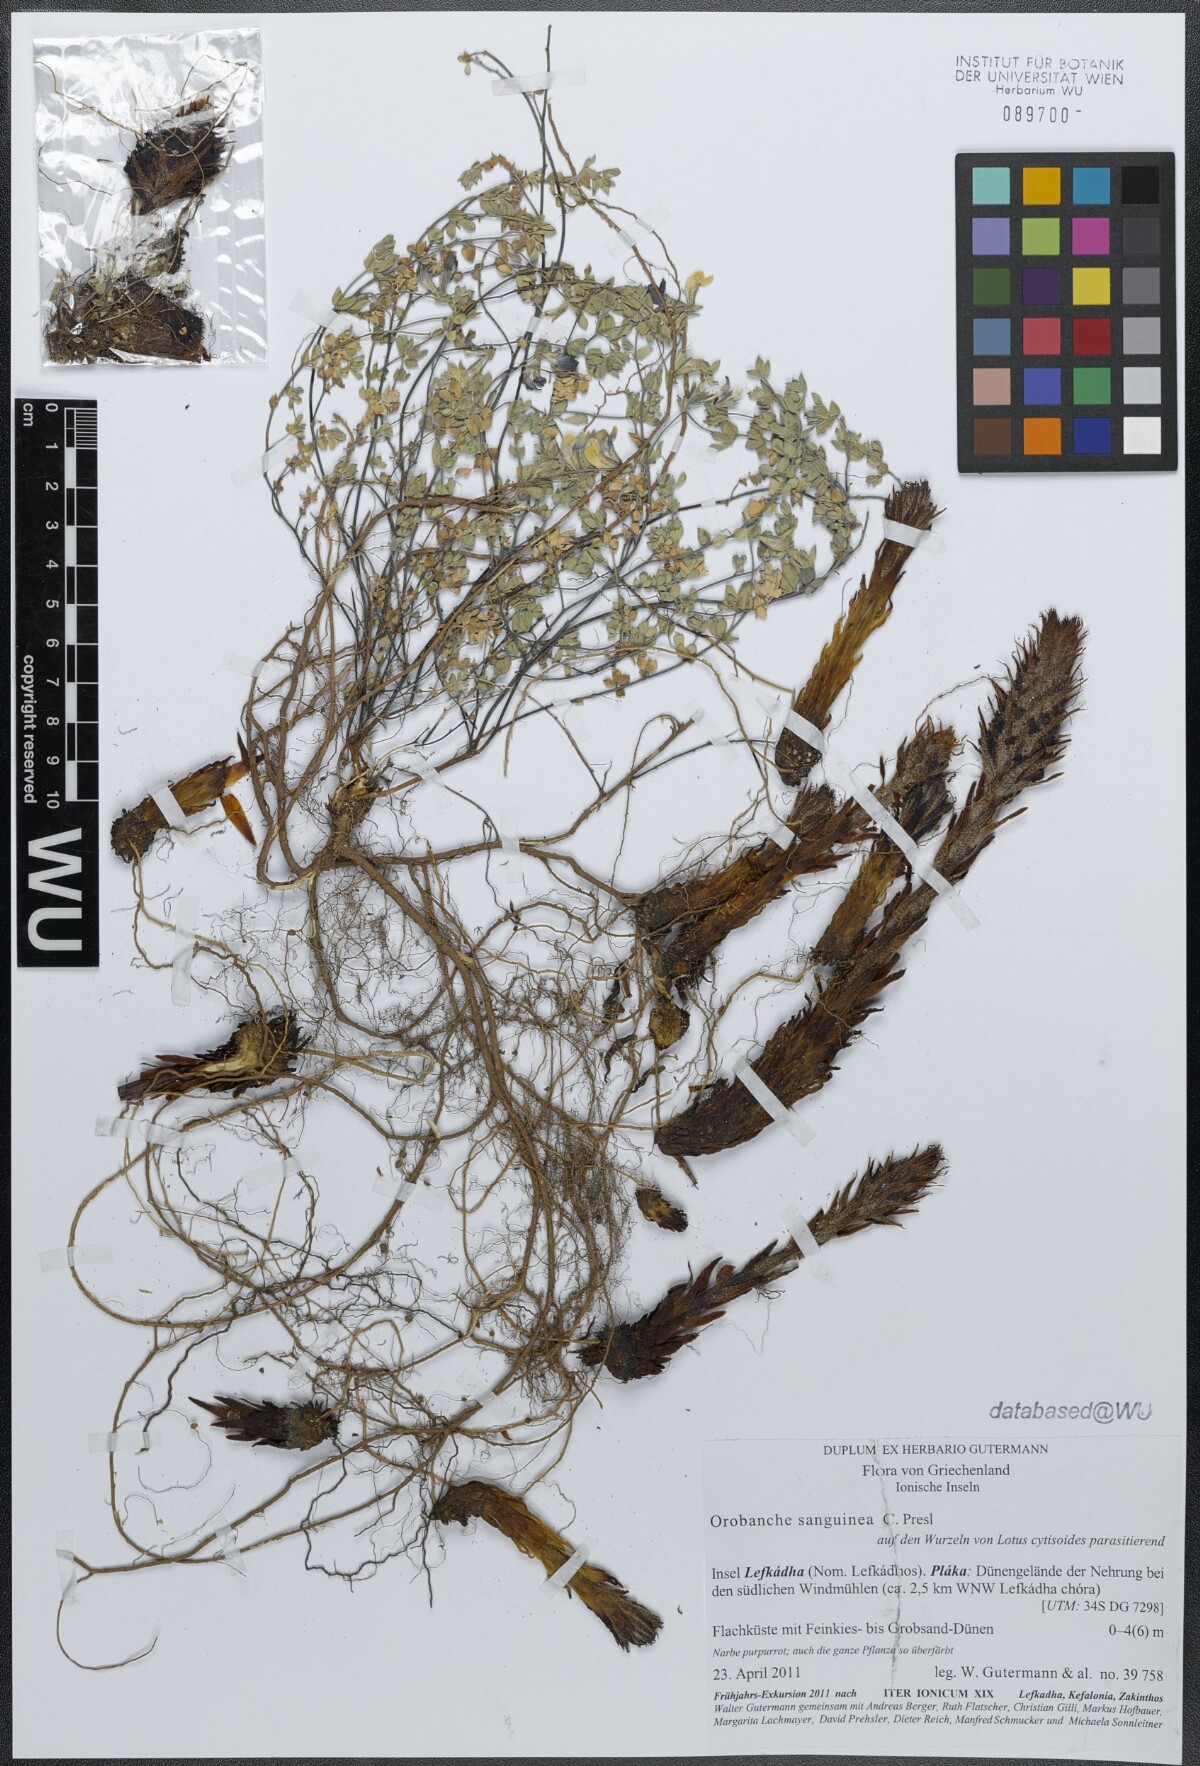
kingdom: Plantae
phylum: Tracheophyta
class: Magnoliopsida
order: Lamiales
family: Orobanchaceae
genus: Orobanche
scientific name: Orobanche sanguinea
